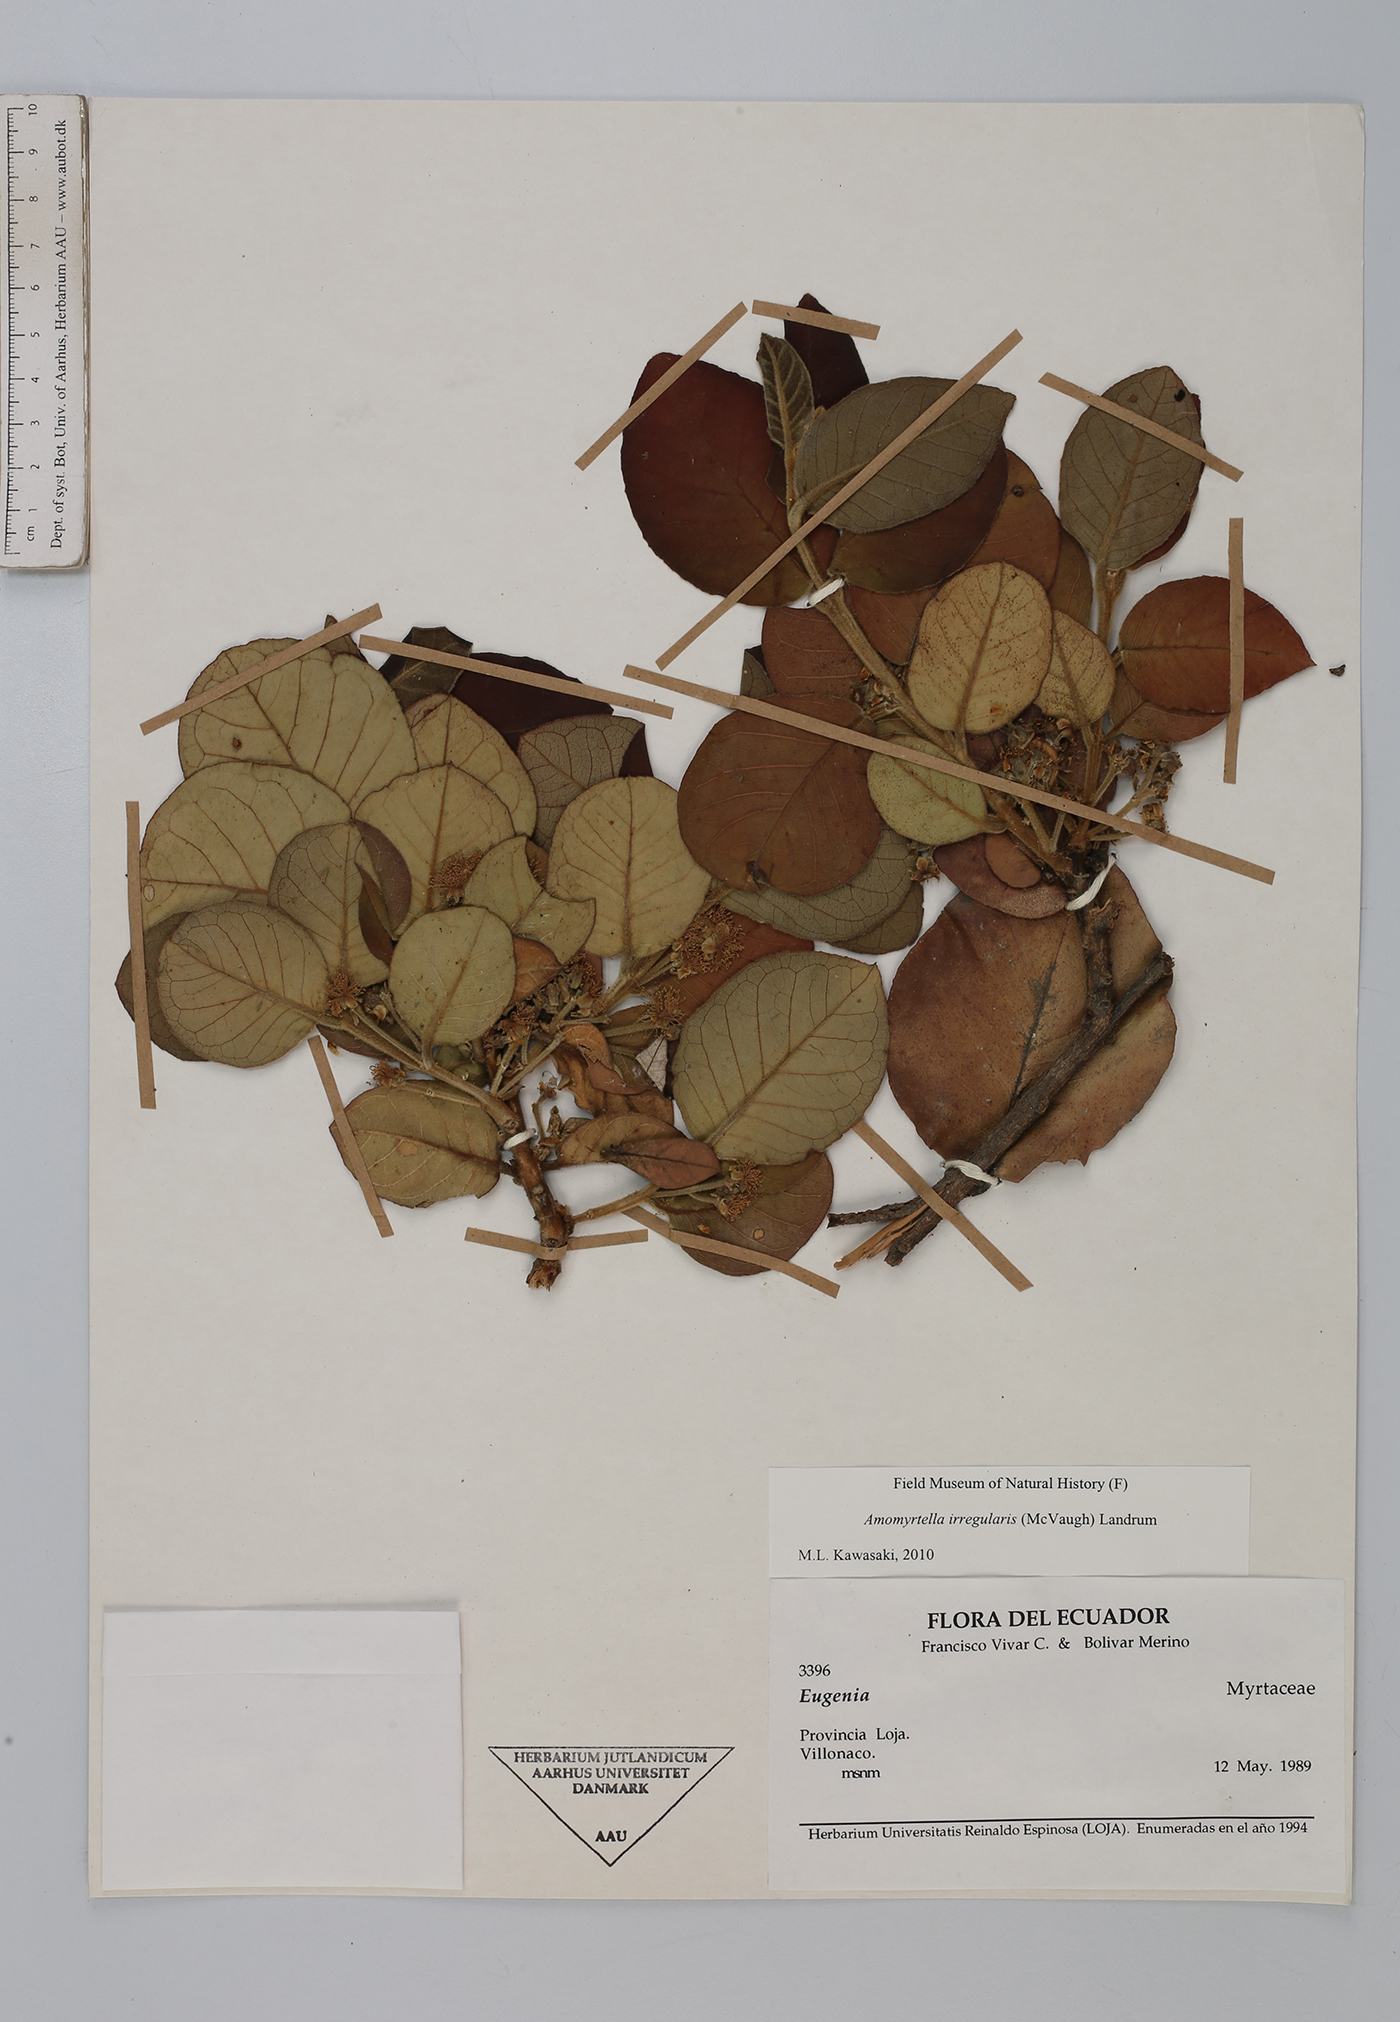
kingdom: Plantae
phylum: Tracheophyta
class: Magnoliopsida
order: Myrtales
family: Myrtaceae
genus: Amomyrtella
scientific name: Amomyrtella irregularis
